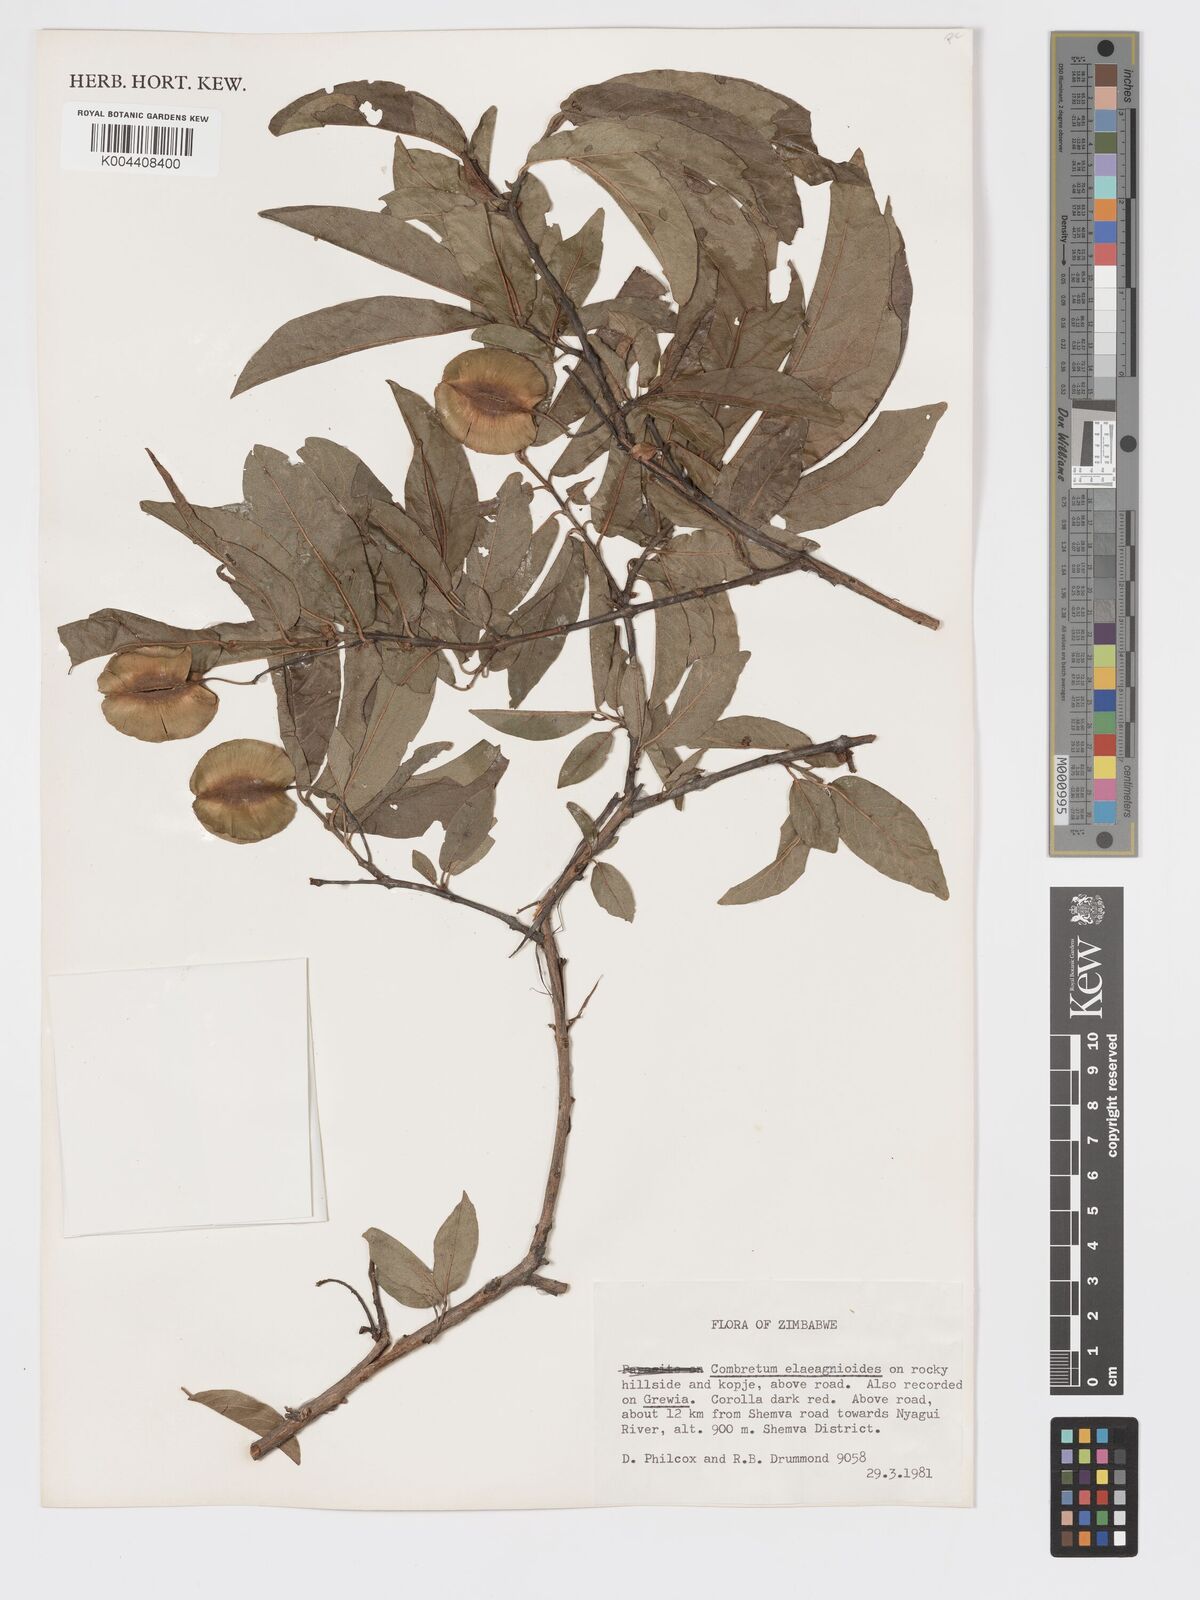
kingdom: Plantae
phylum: Tracheophyta
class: Magnoliopsida
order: Myrtales
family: Combretaceae
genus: Combretum
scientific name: Combretum elaeagnoides
